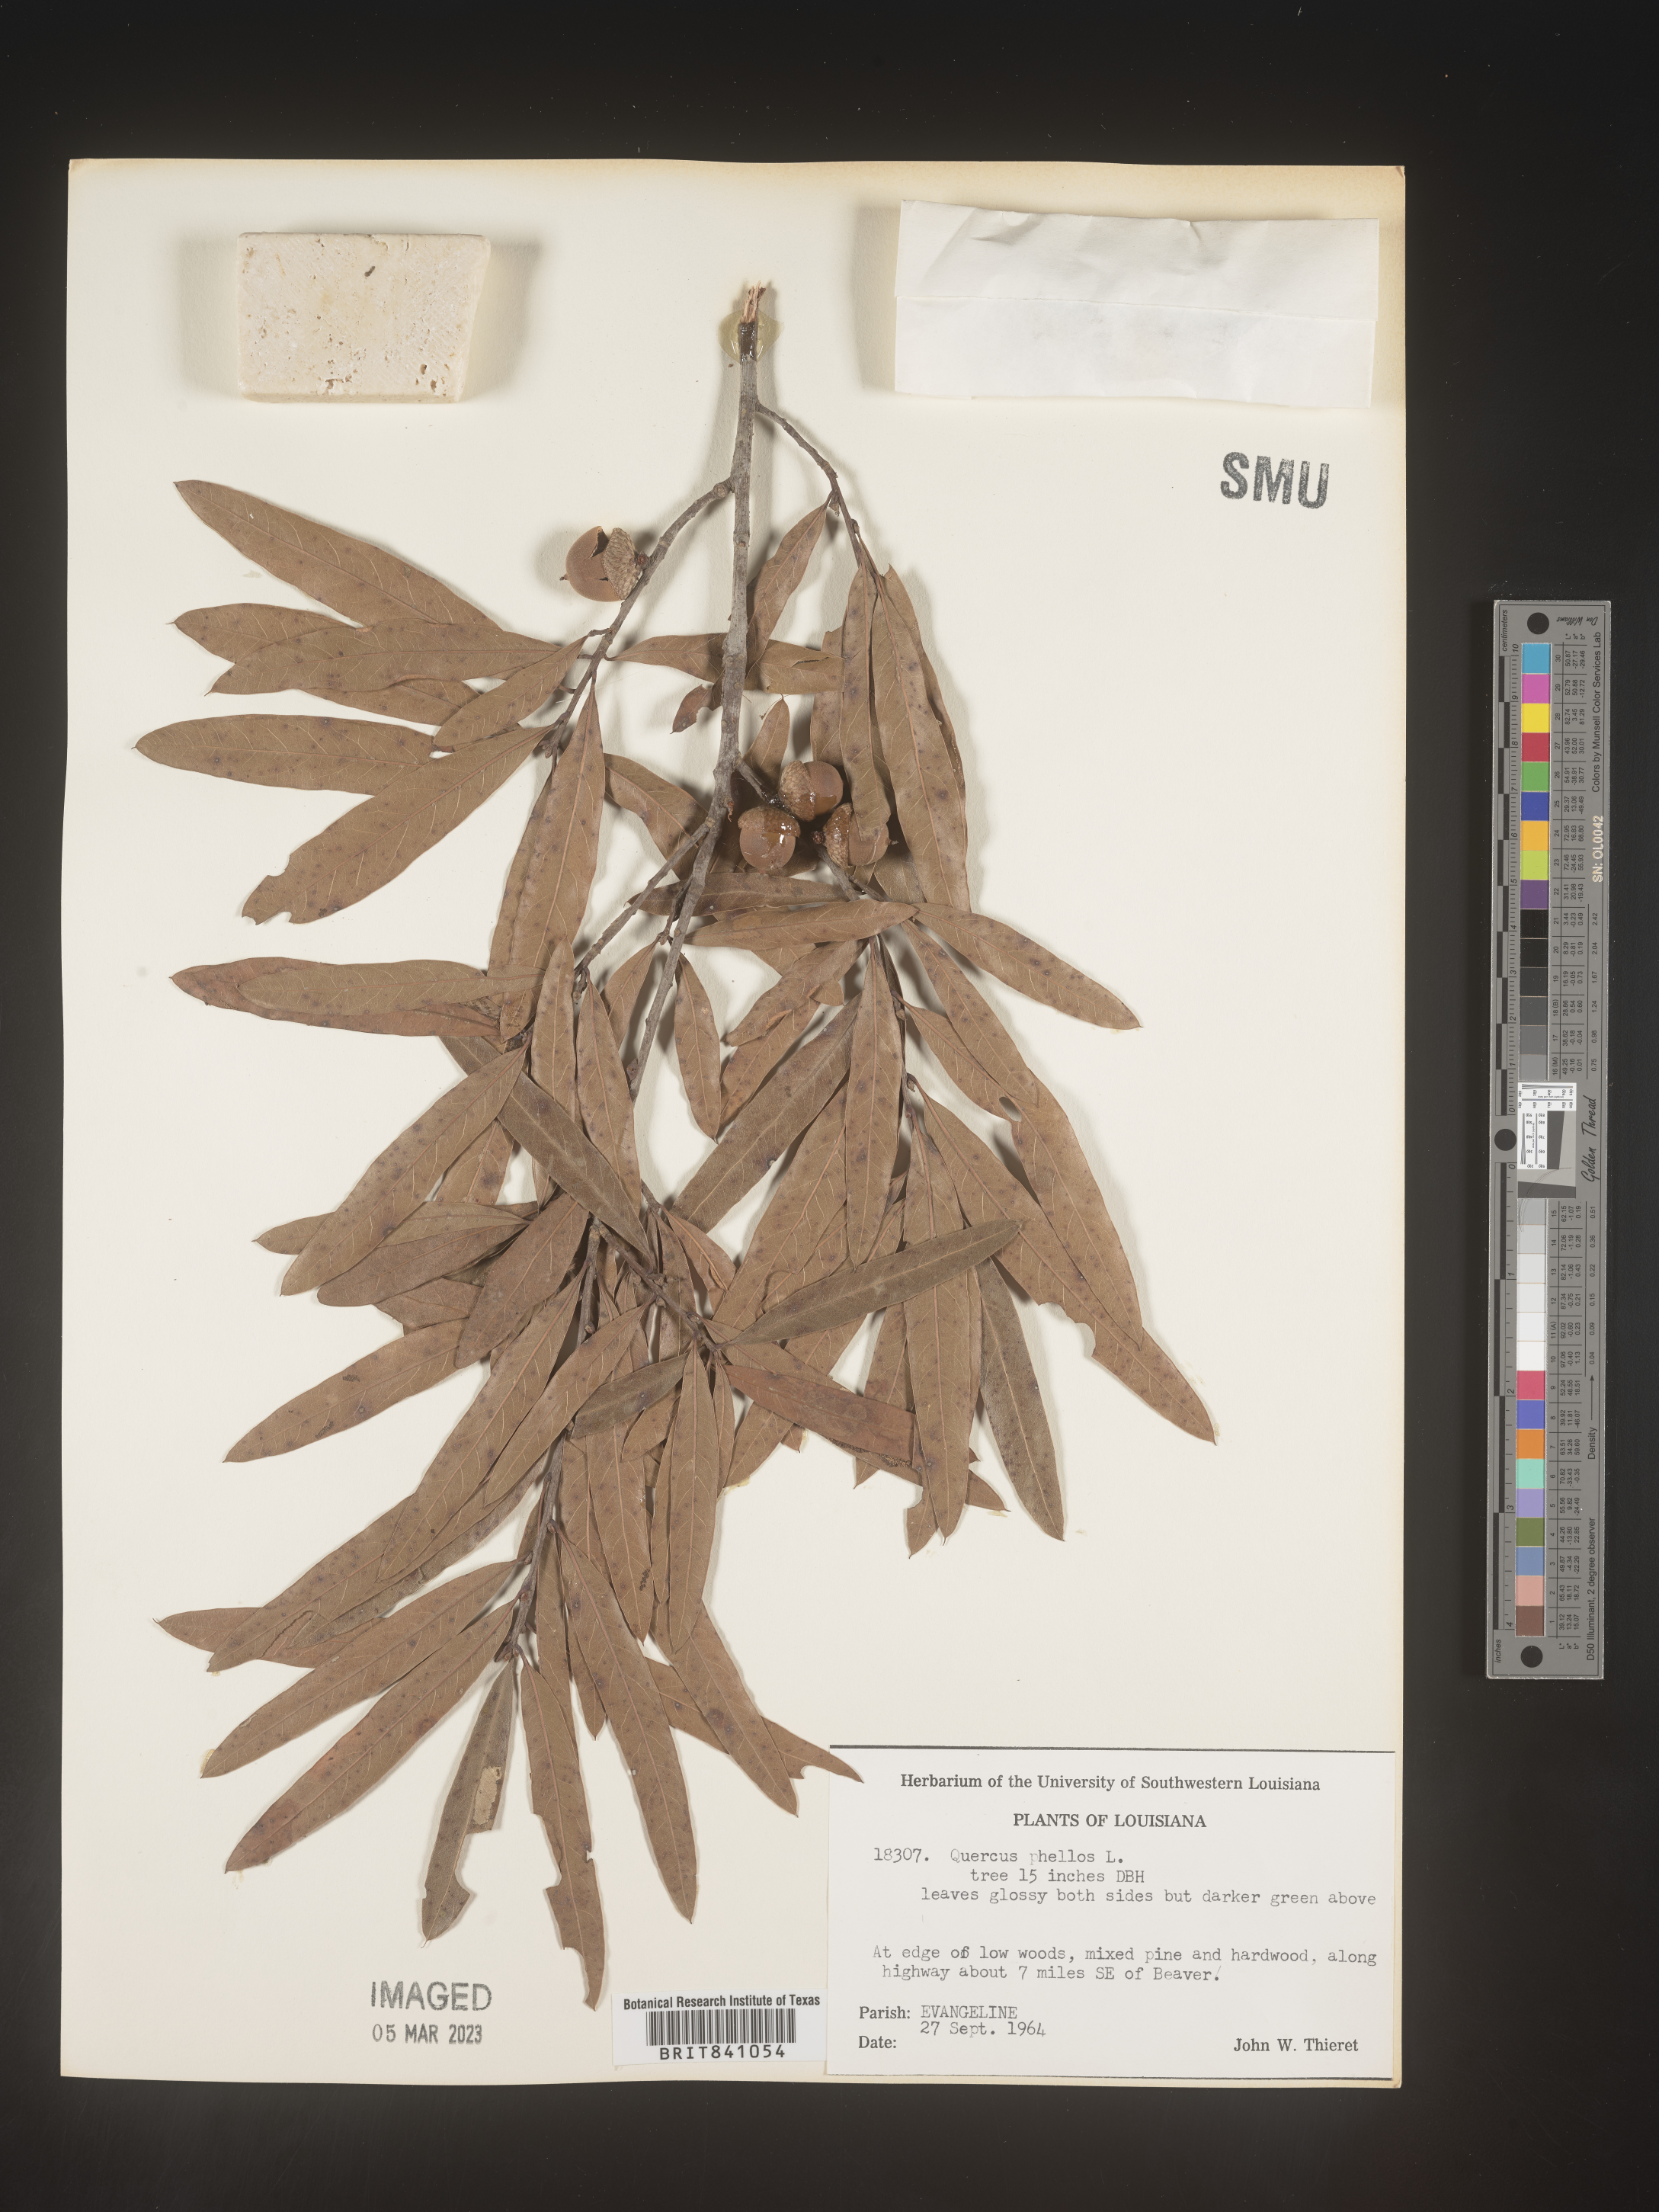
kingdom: Plantae
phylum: Tracheophyta
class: Magnoliopsida
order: Fagales
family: Fagaceae
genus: Quercus
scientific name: Quercus phellos
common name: Willow oak
